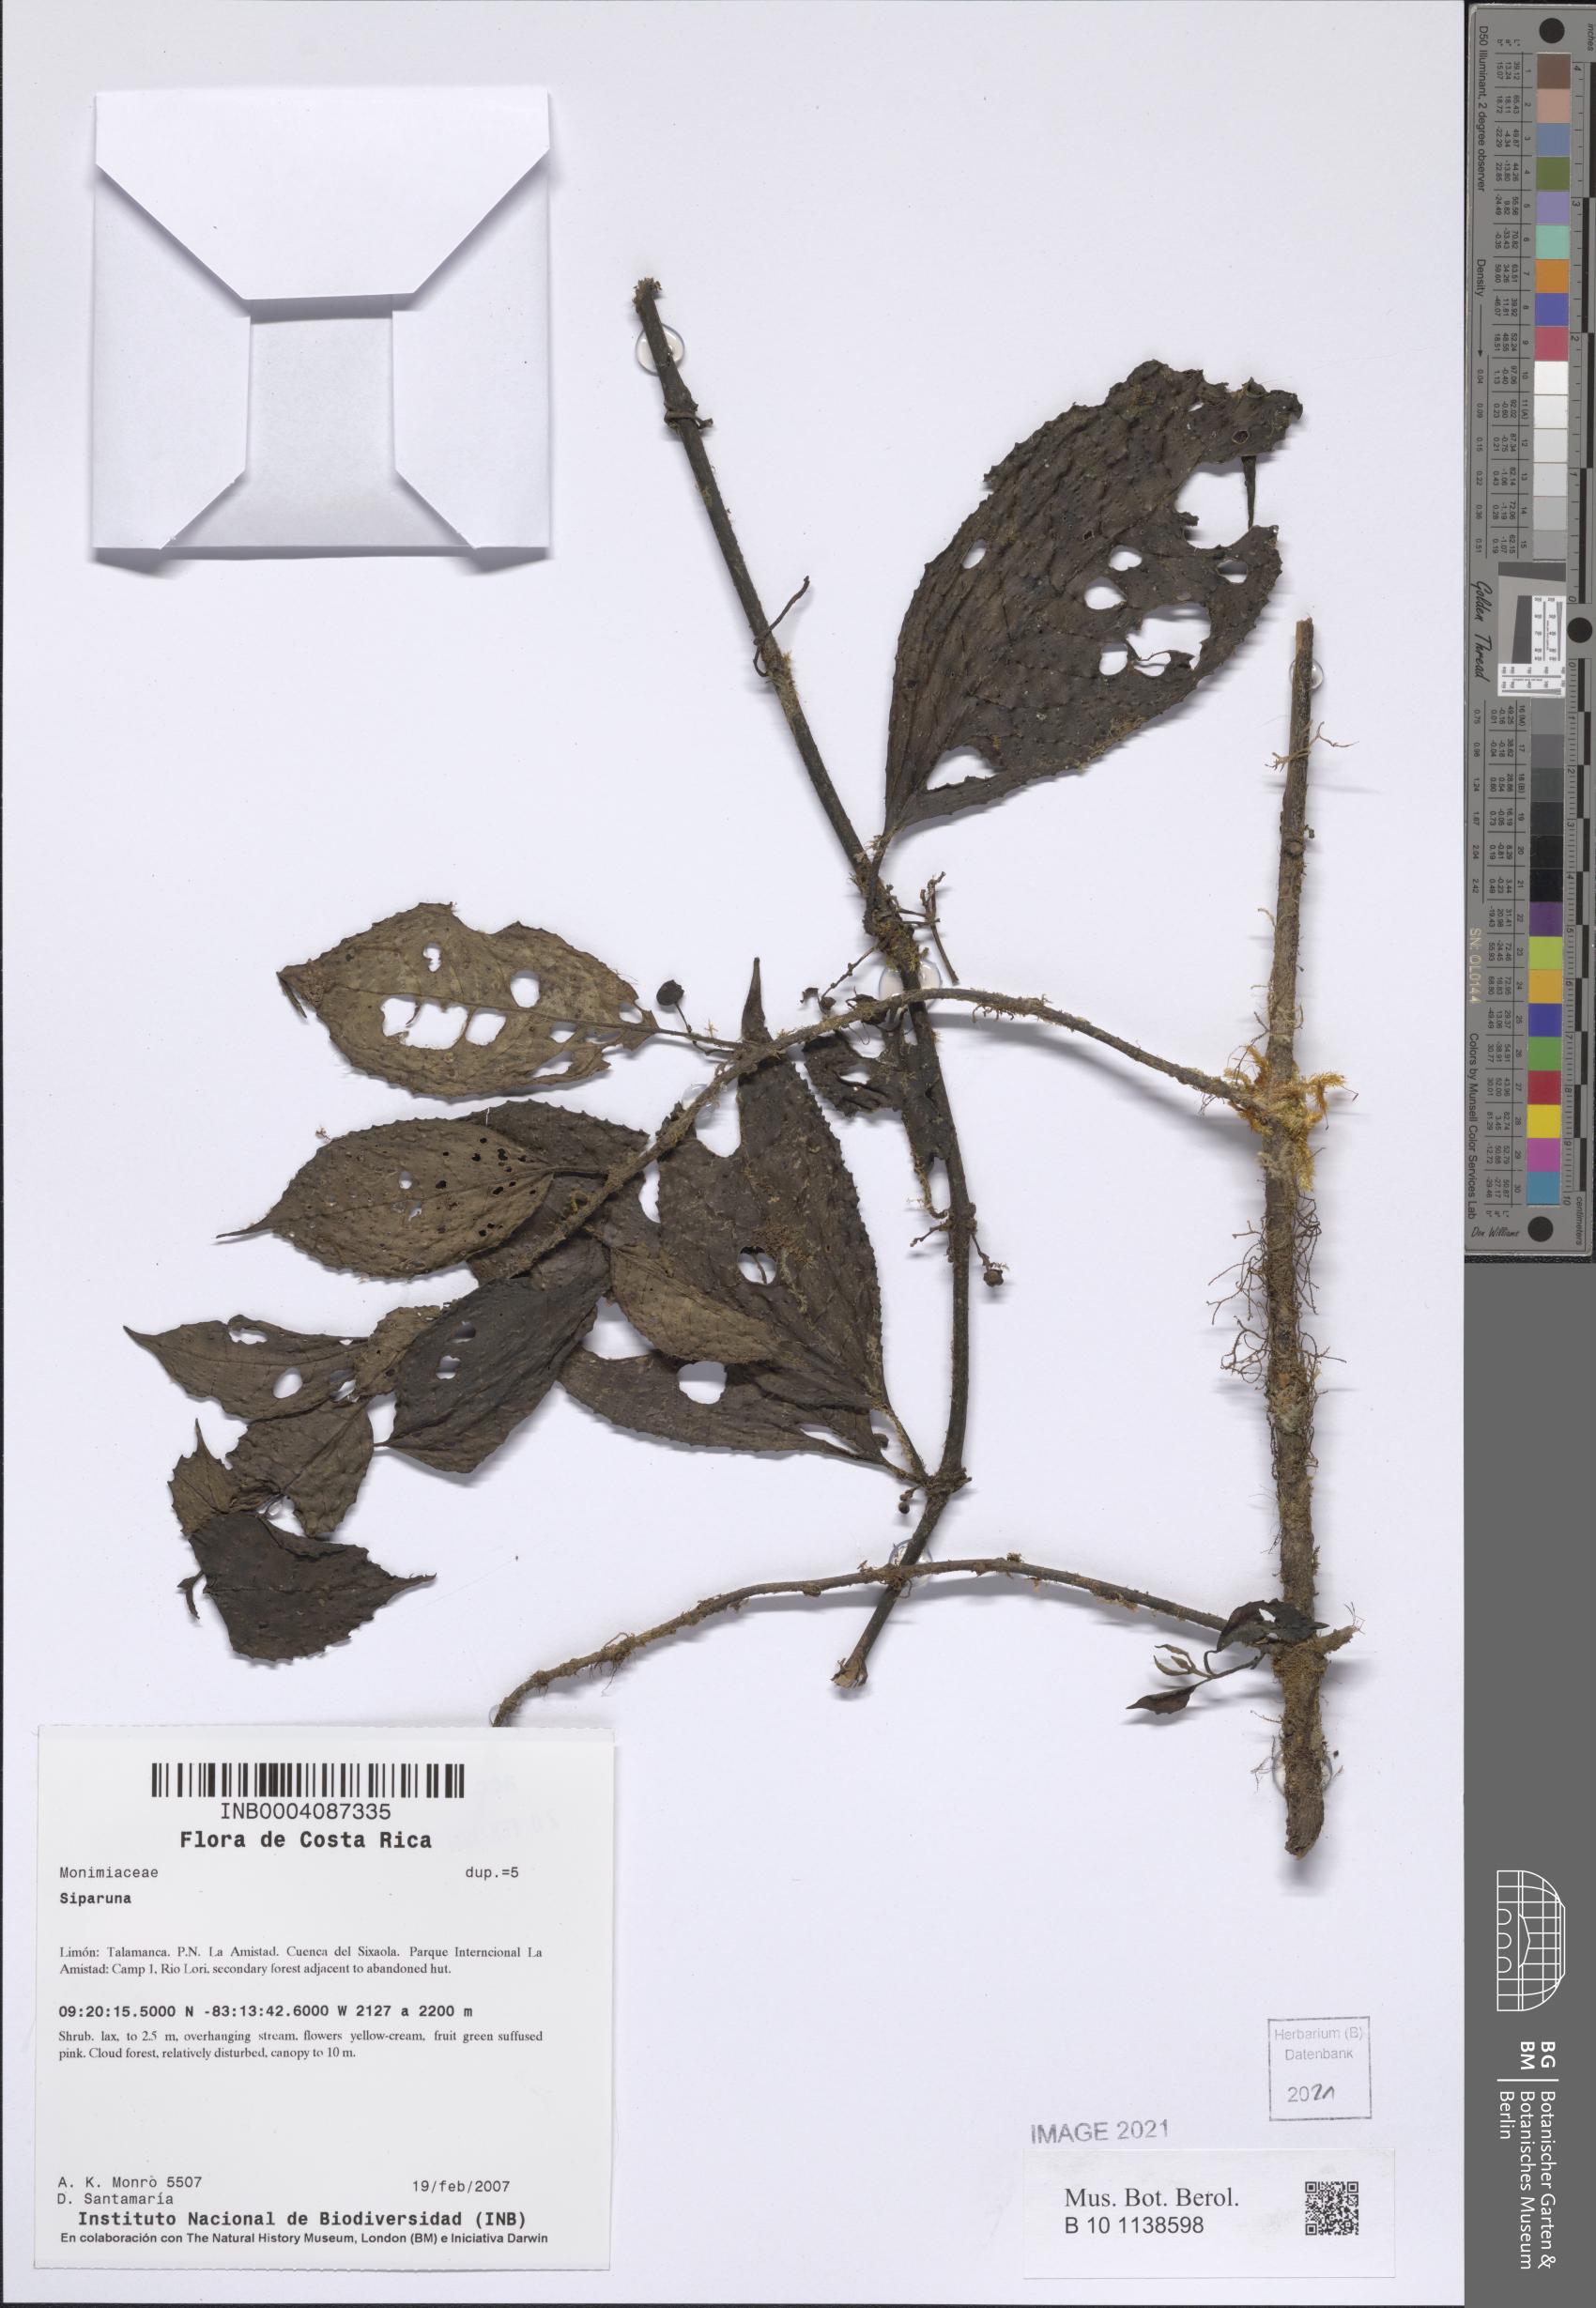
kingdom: Plantae
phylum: Tracheophyta
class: Magnoliopsida
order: Laurales
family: Siparunaceae
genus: Siparuna
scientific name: Siparuna
